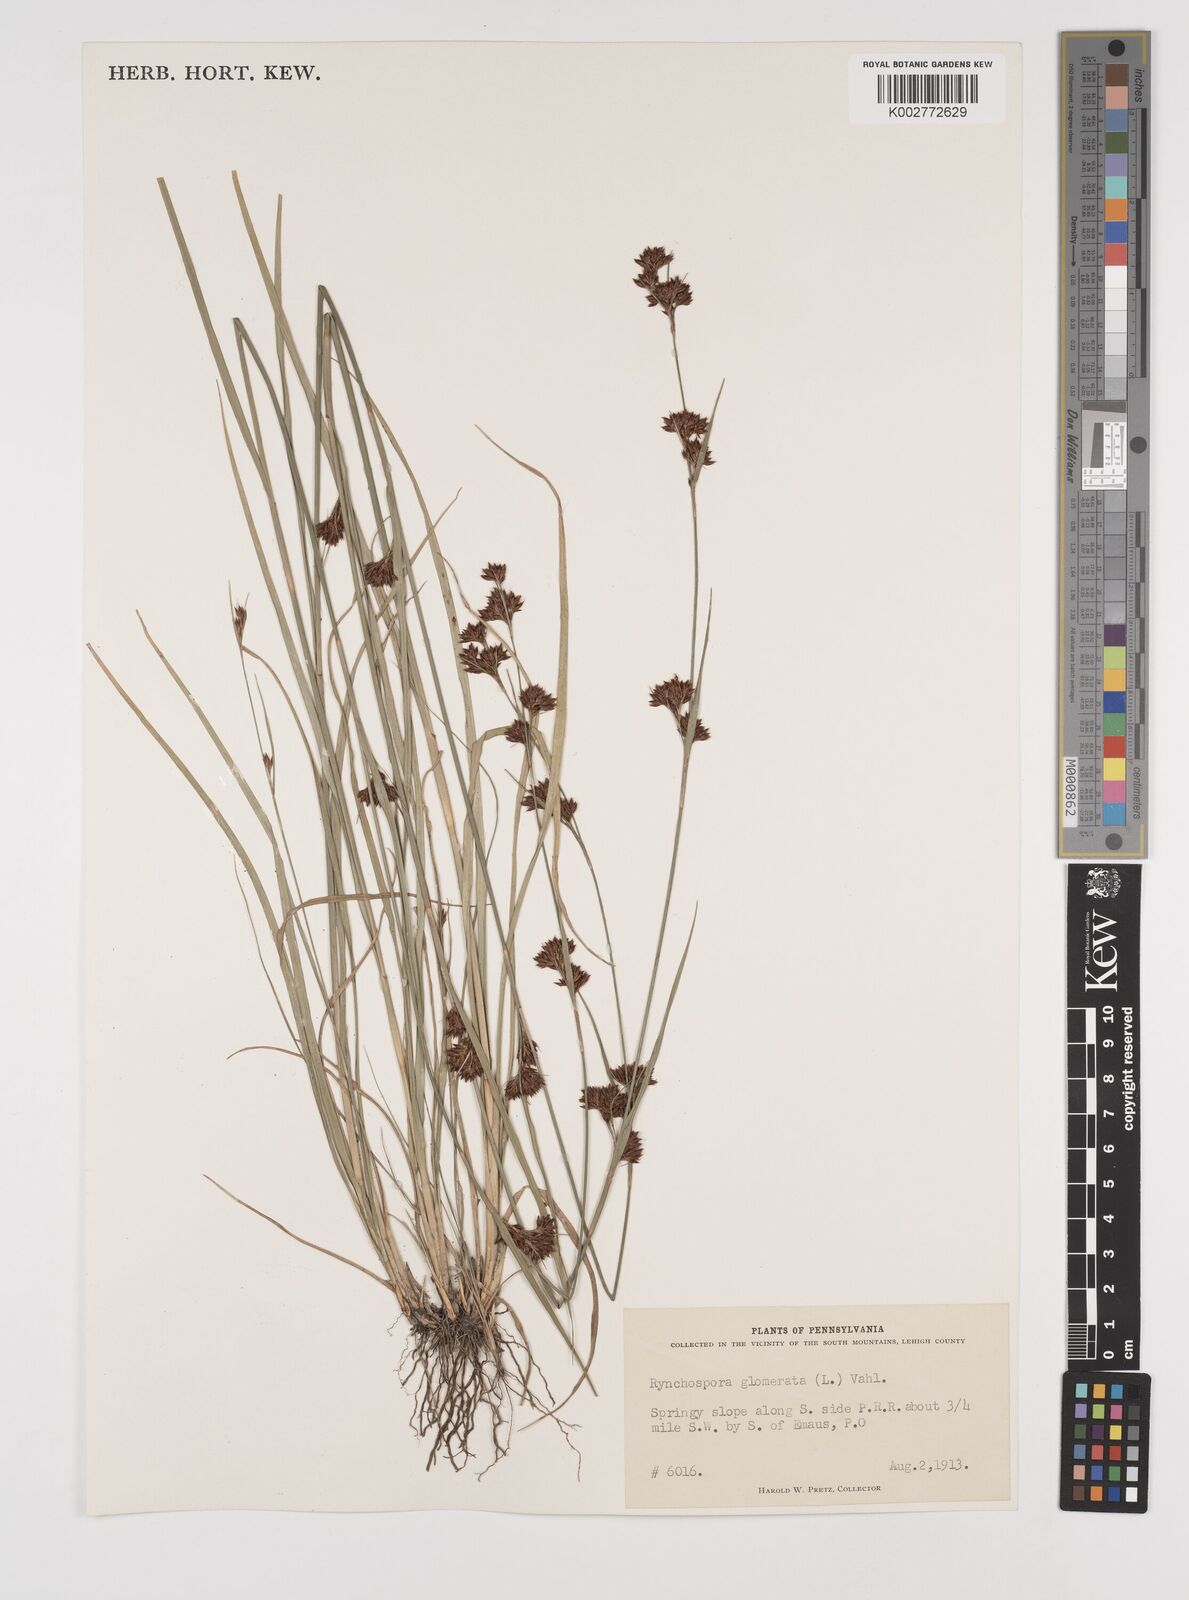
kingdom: Plantae
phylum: Tracheophyta
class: Liliopsida
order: Poales
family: Cyperaceae
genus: Rhynchospora
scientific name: Rhynchospora capitellata
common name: Brownish beaksedge
